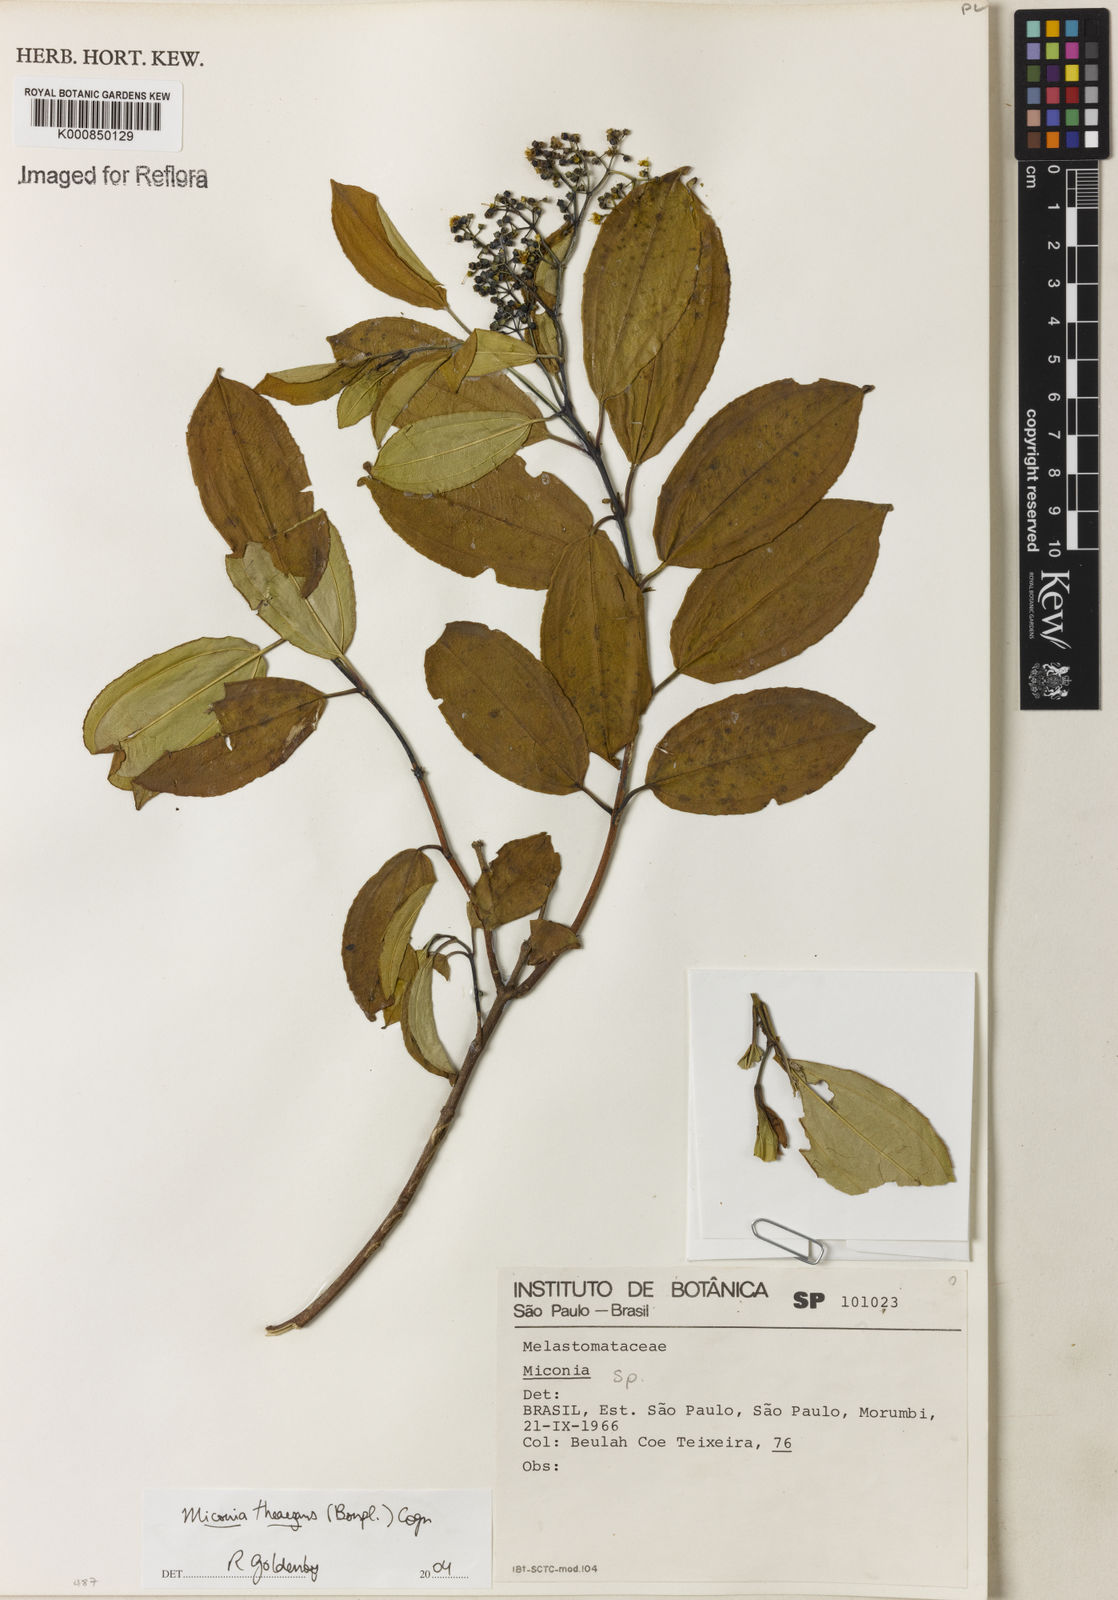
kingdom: Plantae
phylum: Tracheophyta
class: Magnoliopsida
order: Myrtales
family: Melastomataceae
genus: Miconia
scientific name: Miconia
